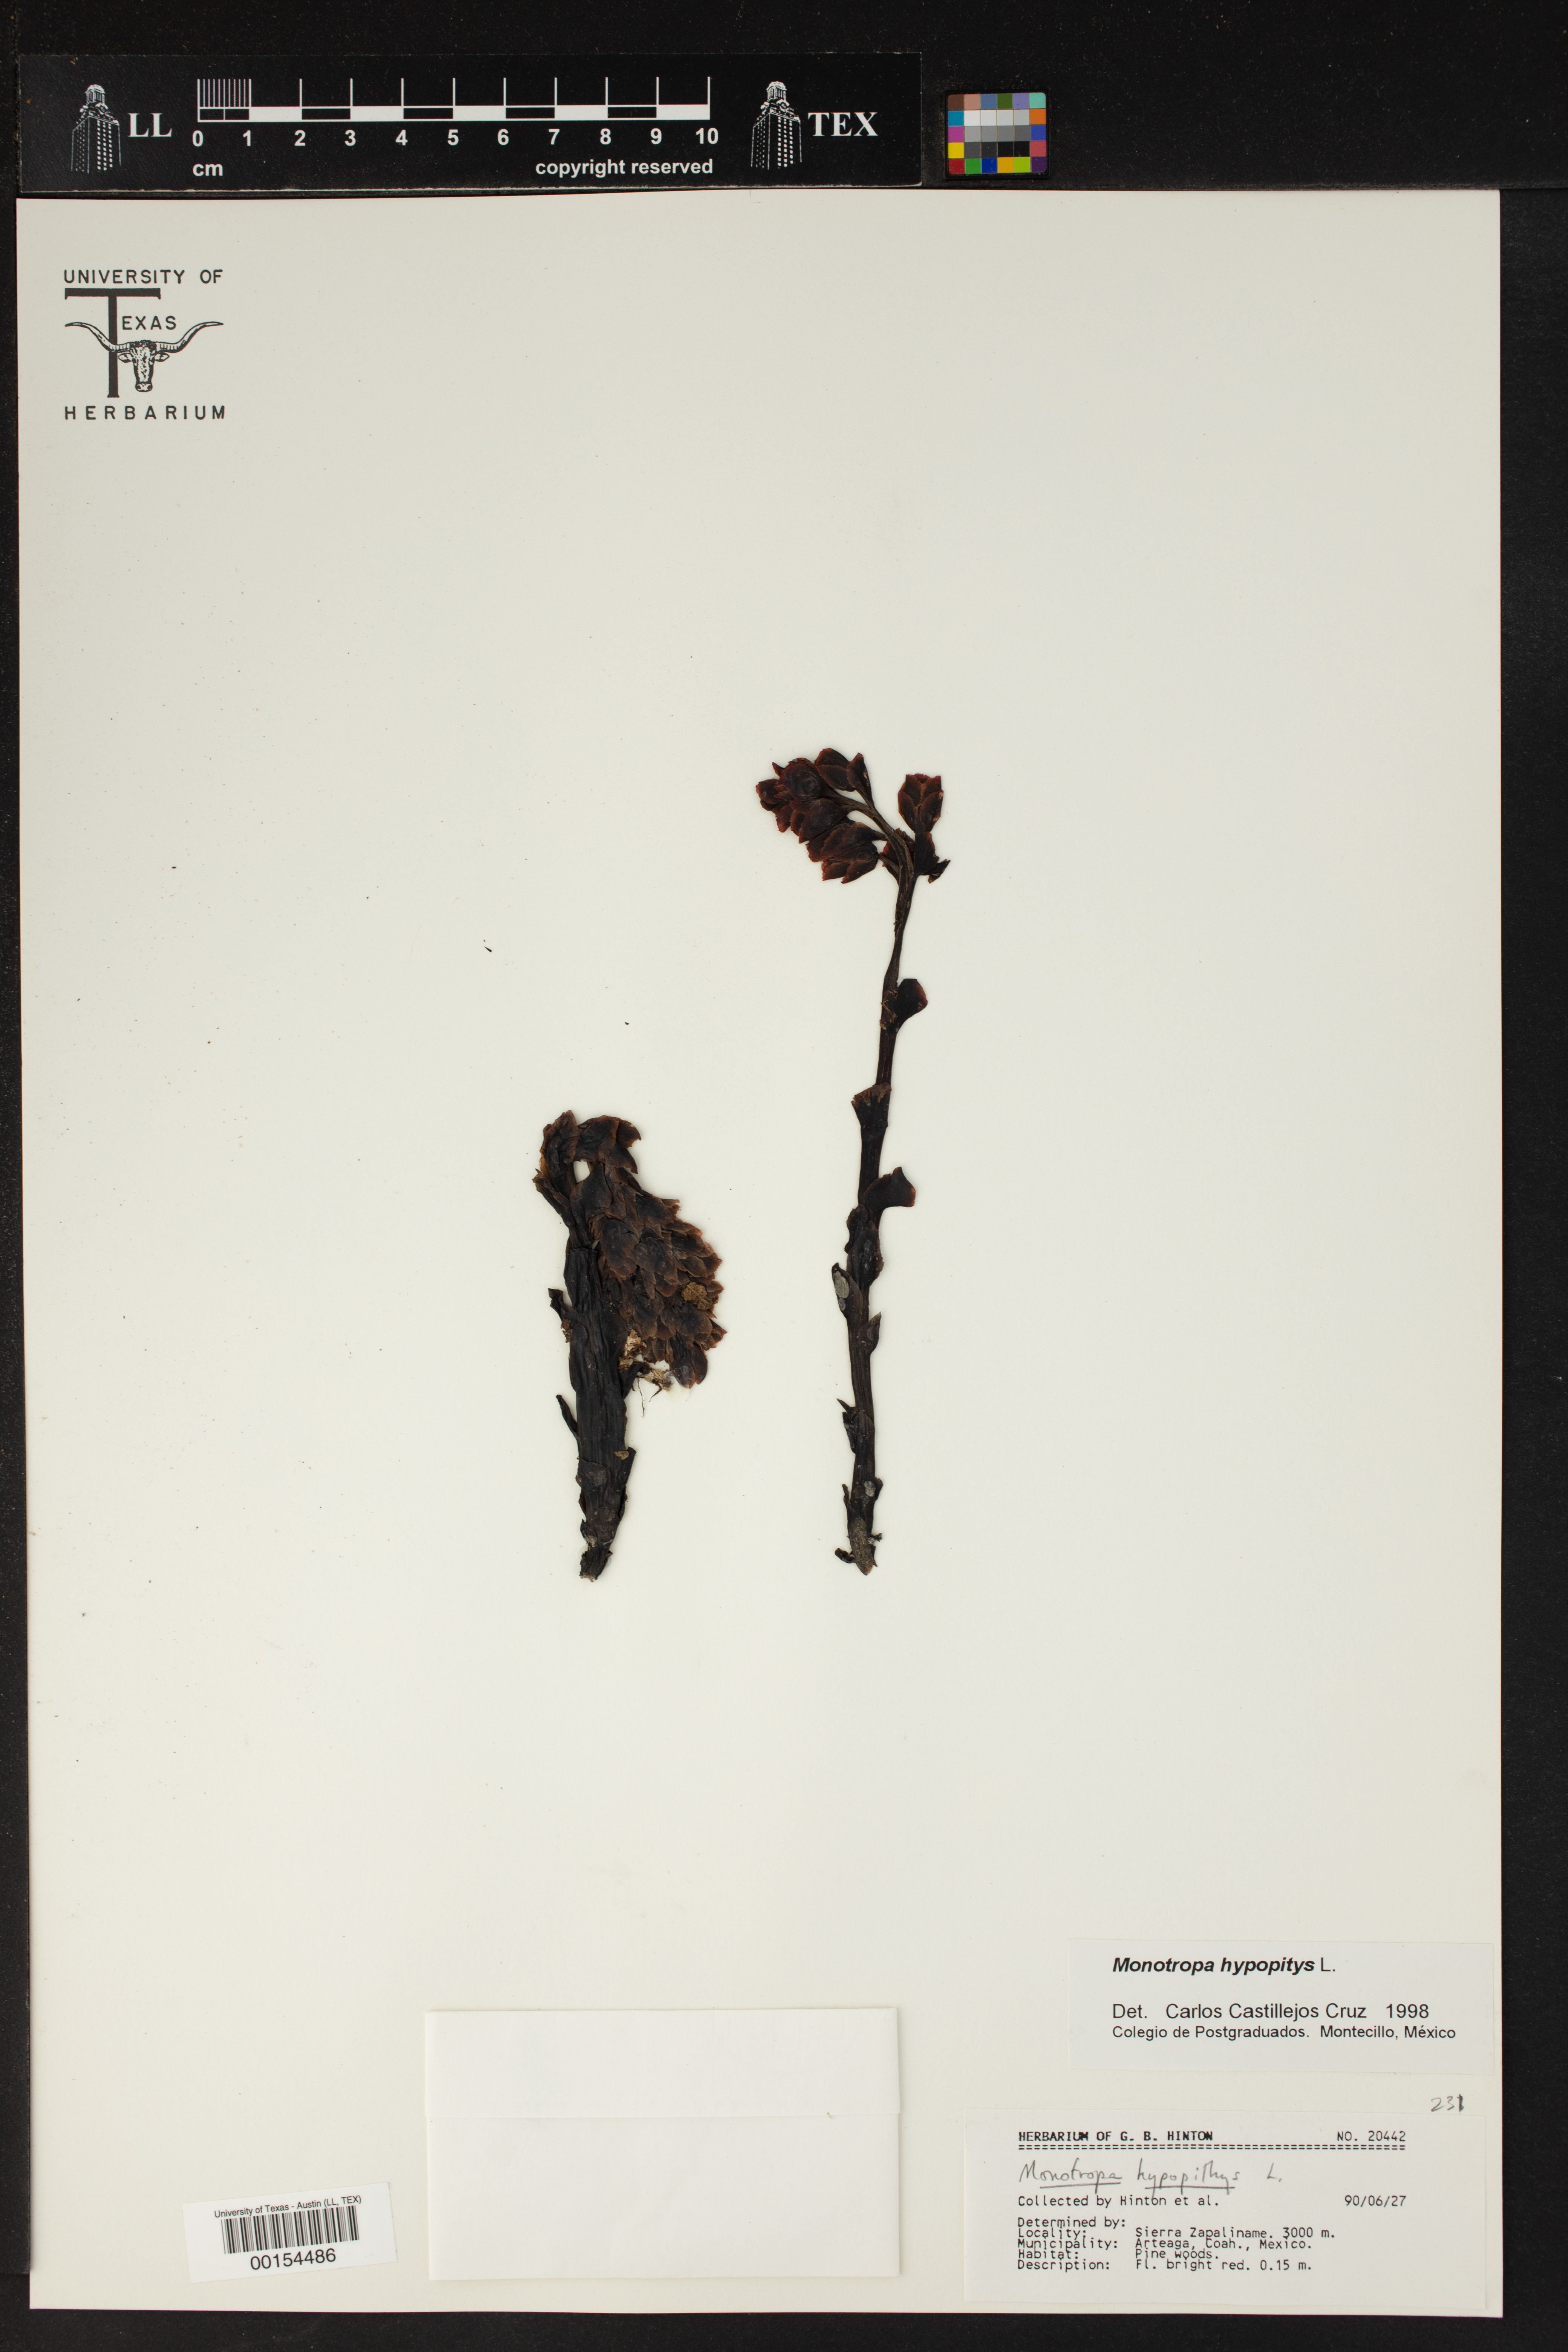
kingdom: Plantae
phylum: Tracheophyta
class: Magnoliopsida
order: Ericales
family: Ericaceae
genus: Hypopitys
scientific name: Hypopitys monotropa
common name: Yellow bird's-nest
